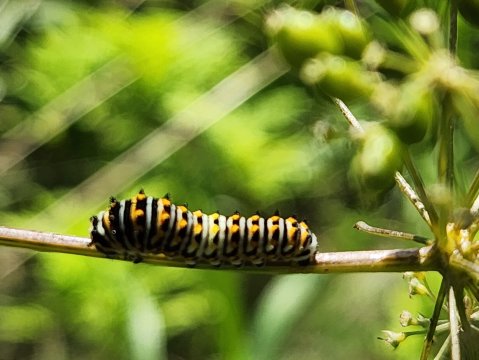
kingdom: Animalia
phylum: Arthropoda
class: Insecta
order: Lepidoptera
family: Papilionidae
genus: Papilio
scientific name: Papilio polyxenes
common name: Black Swallowtail
